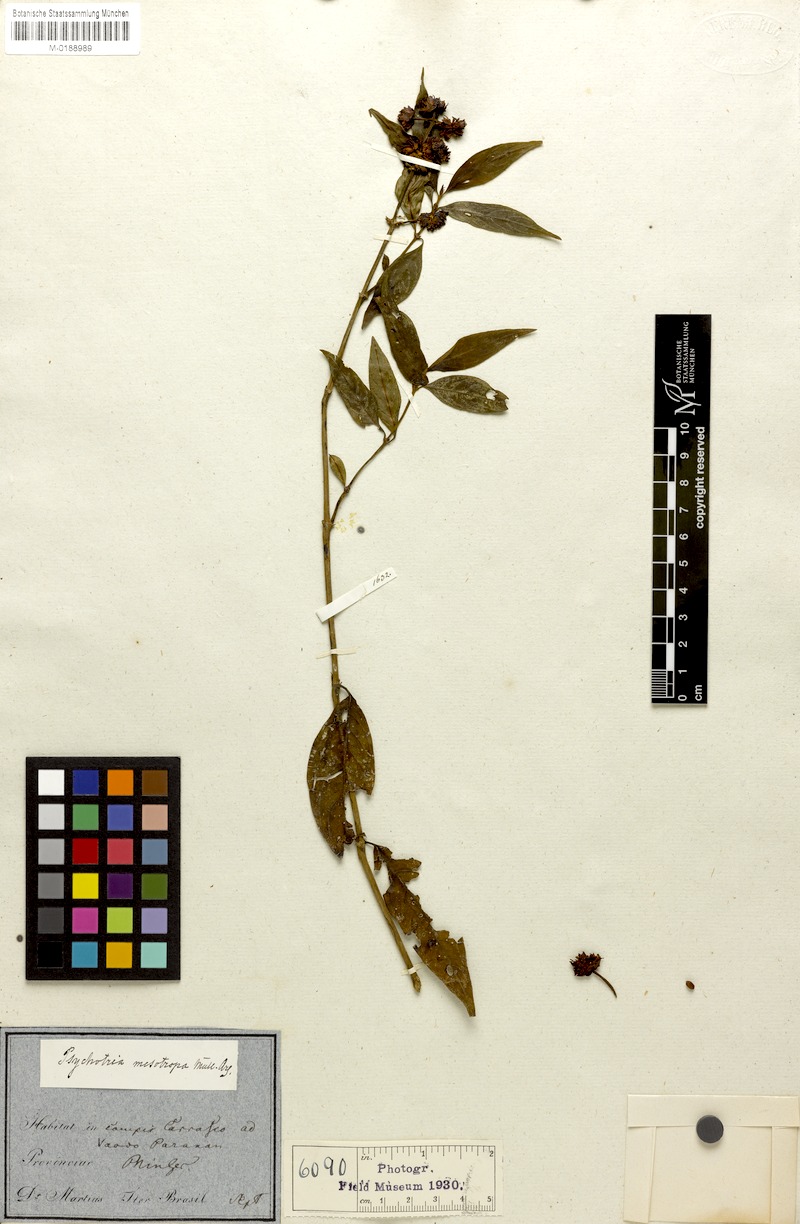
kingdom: Plantae
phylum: Tracheophyta
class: Magnoliopsida
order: Gentianales
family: Rubiaceae
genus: Psychotria
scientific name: Psychotria stachyoides
